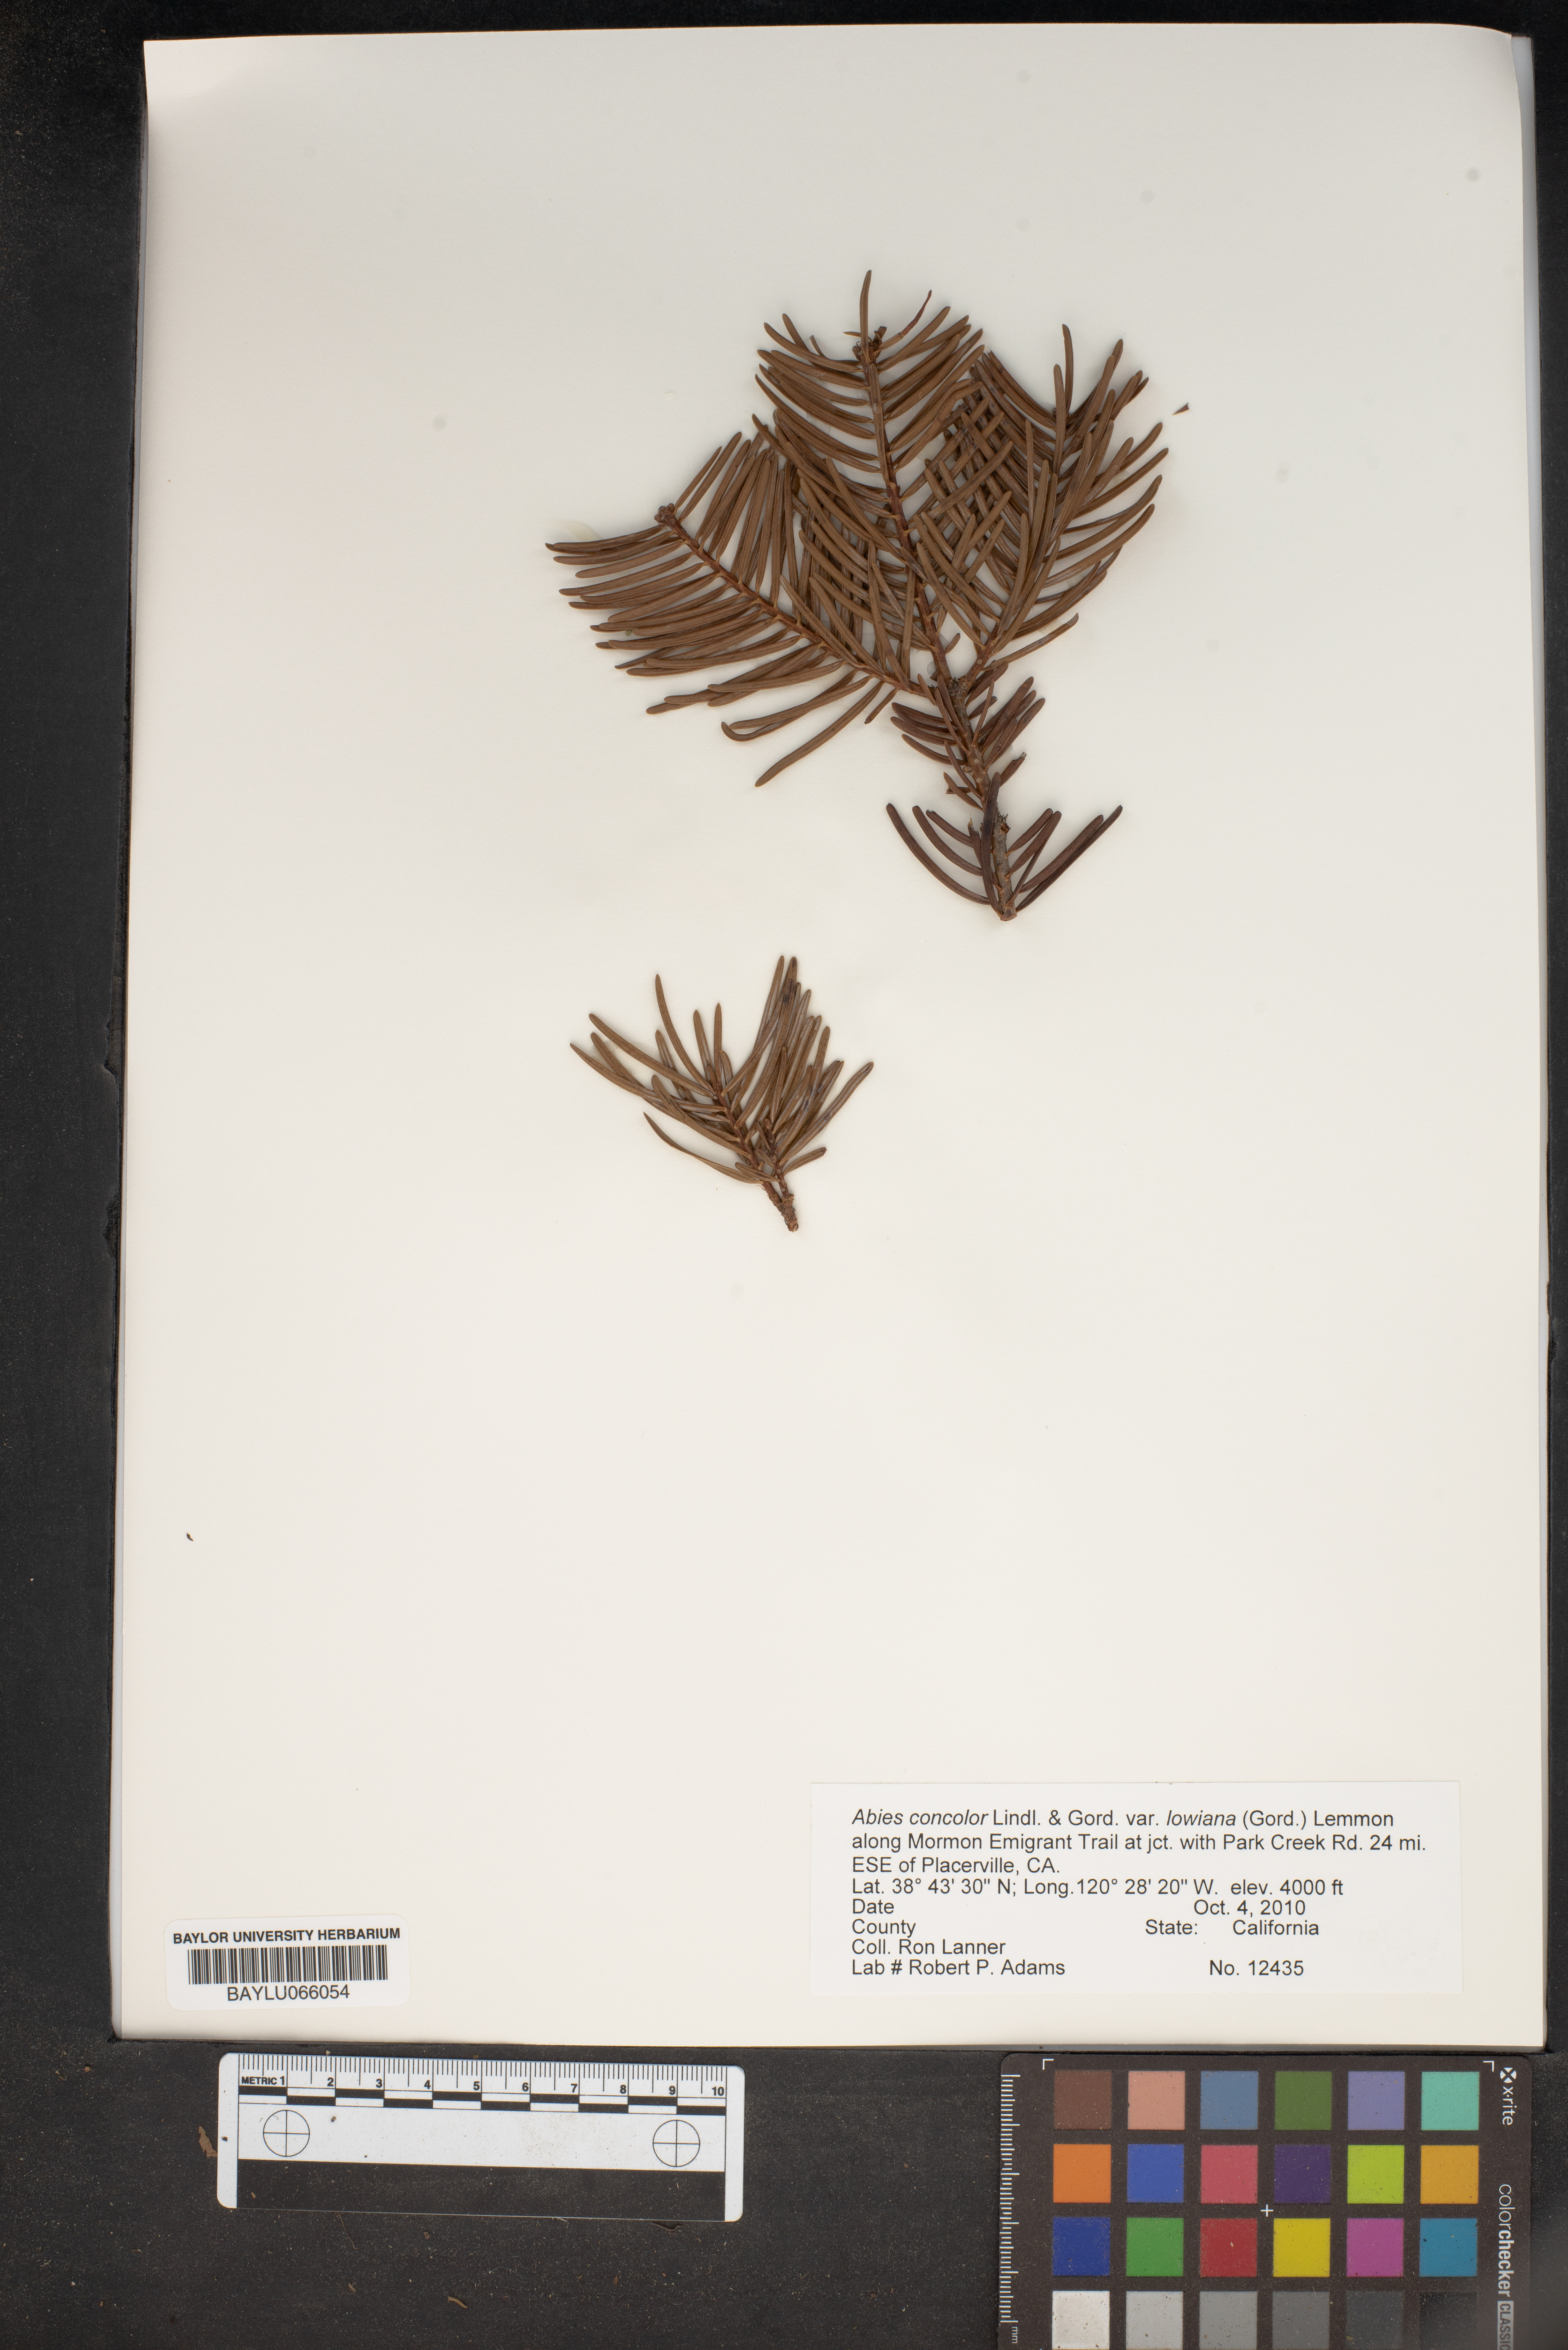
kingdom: Plantae
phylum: Tracheophyta
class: Pinopsida
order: Pinales
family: Pinaceae
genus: Abies
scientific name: Abies concolor
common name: Colorado fir
